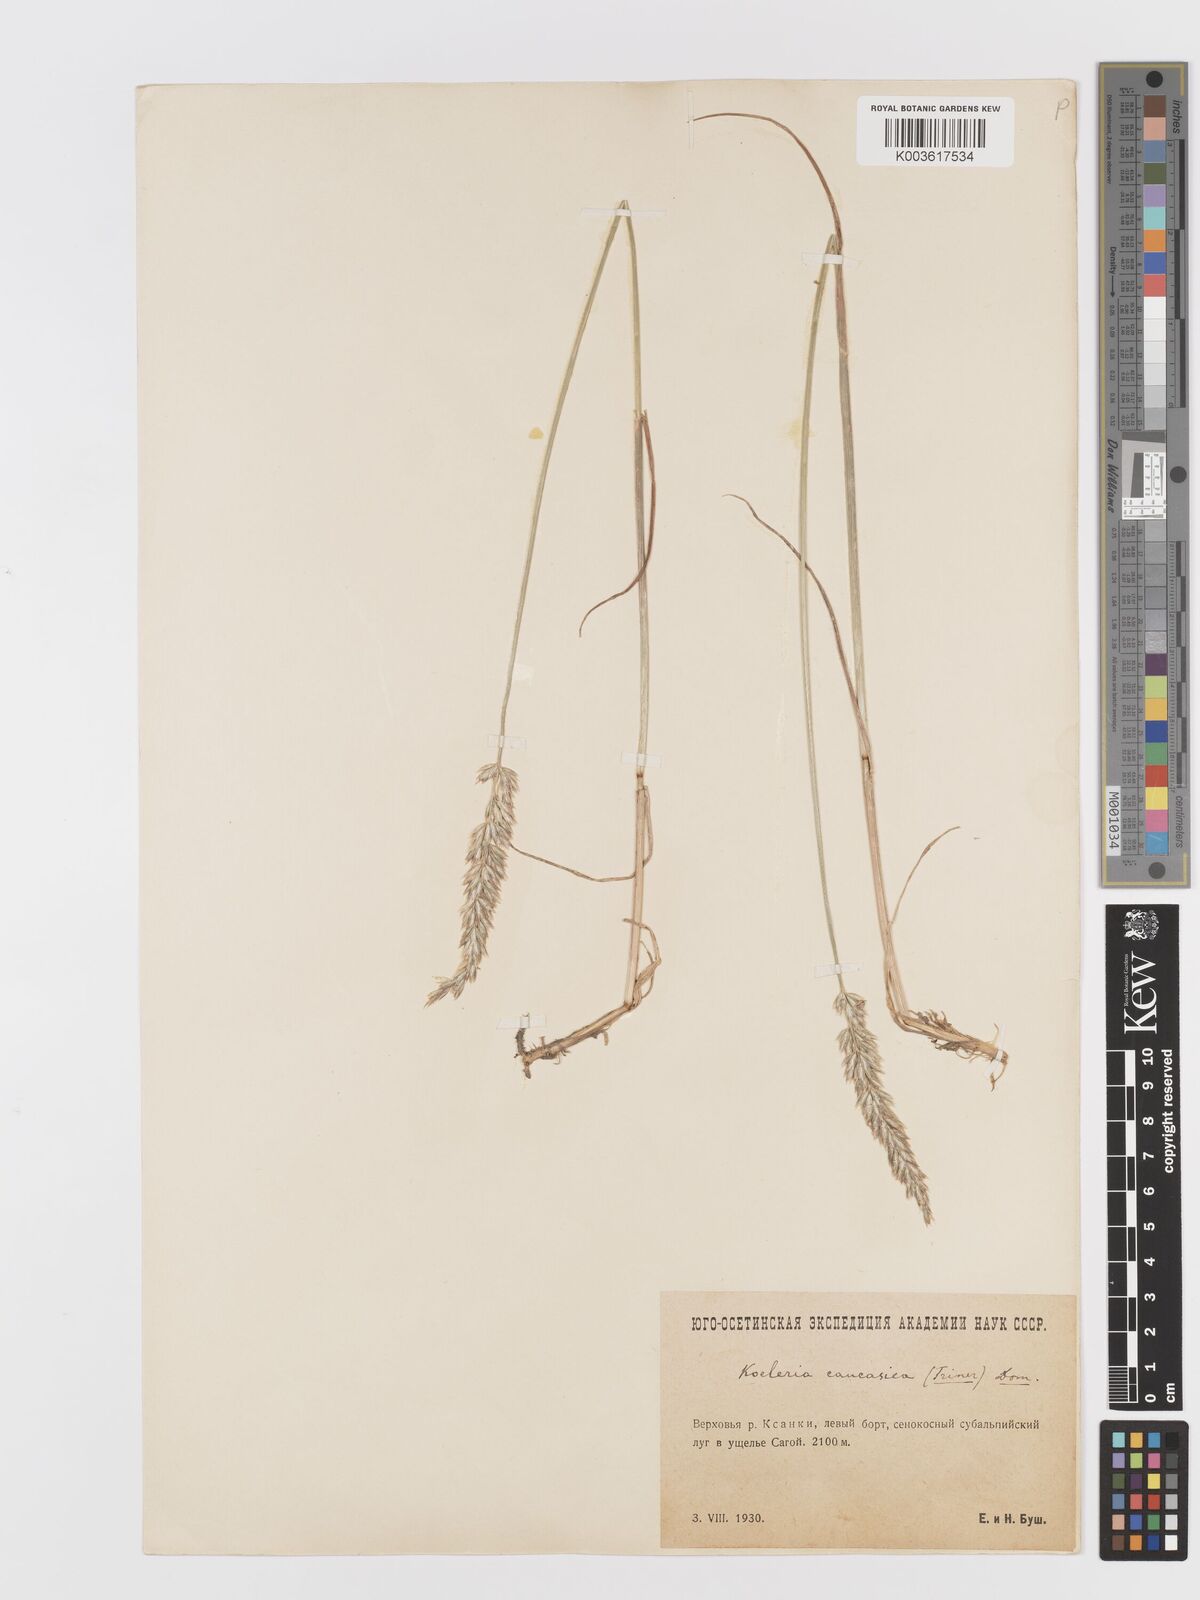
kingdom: Plantae
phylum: Tracheophyta
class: Liliopsida
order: Poales
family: Poaceae
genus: Koeleria
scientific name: Koeleria eriostachya
